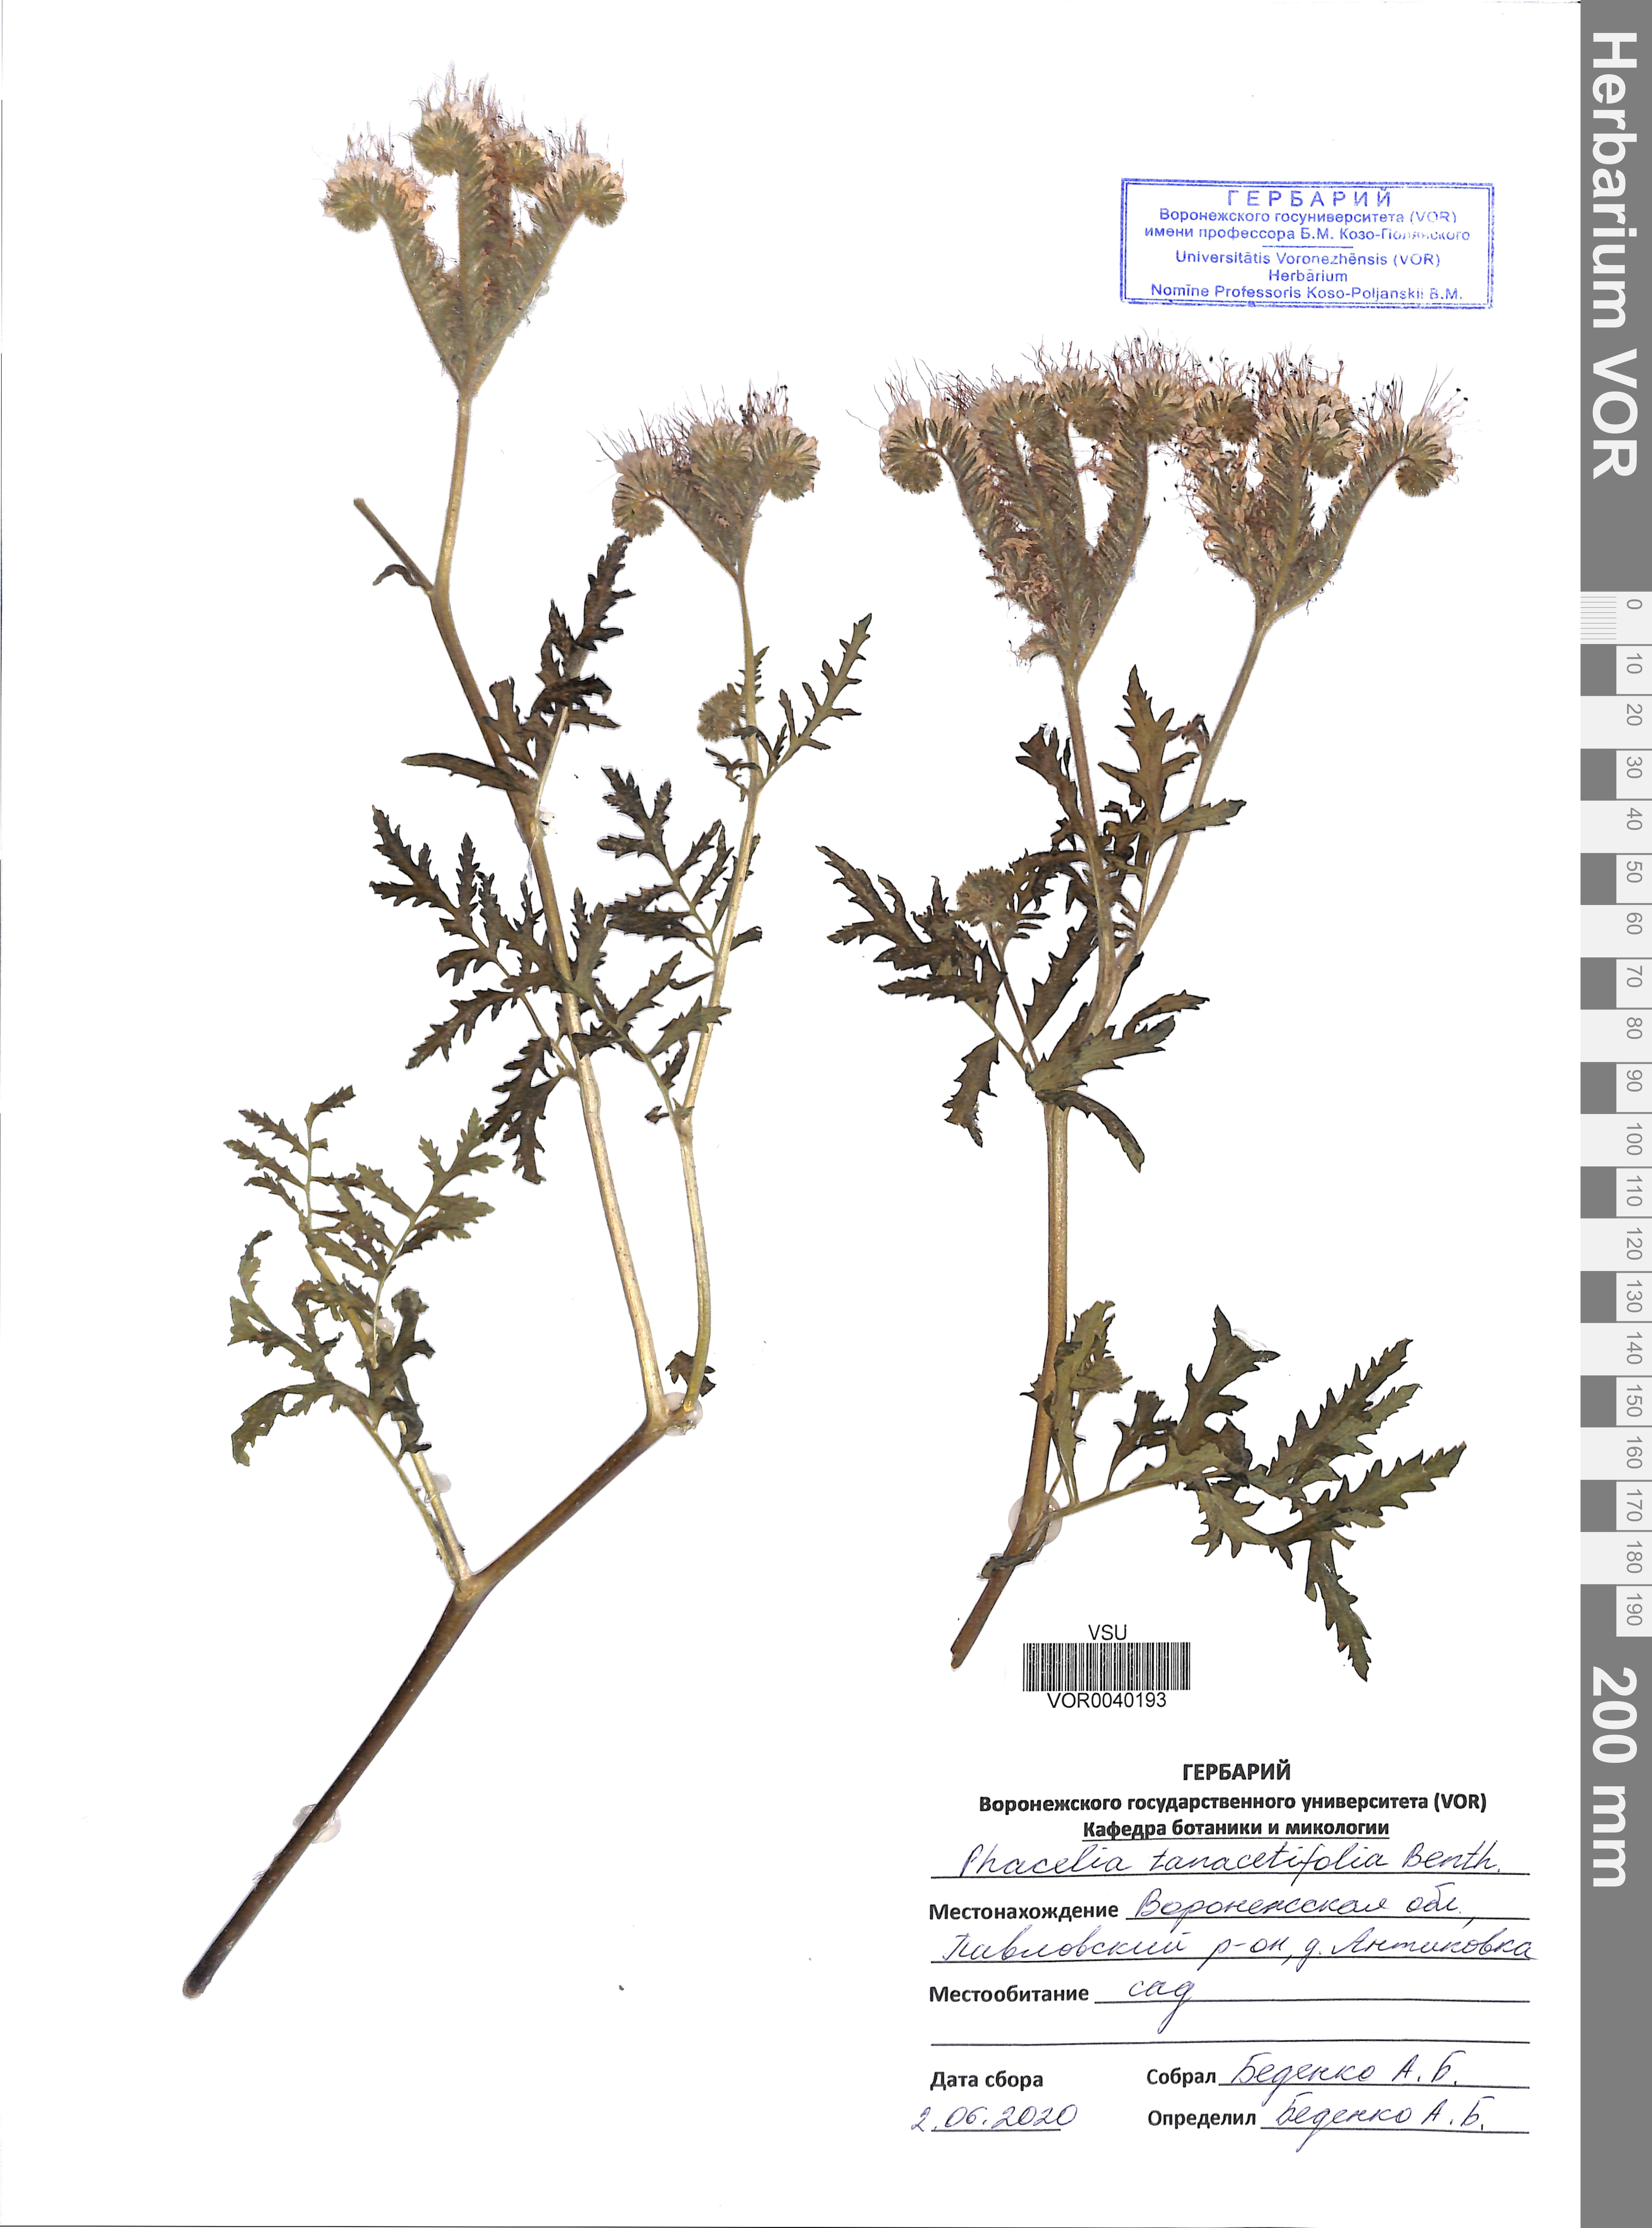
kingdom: Plantae
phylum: Tracheophyta
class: Magnoliopsida
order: Boraginales
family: Hydrophyllaceae
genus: Phacelia
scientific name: Phacelia tanacetifolia
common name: Phacelia
